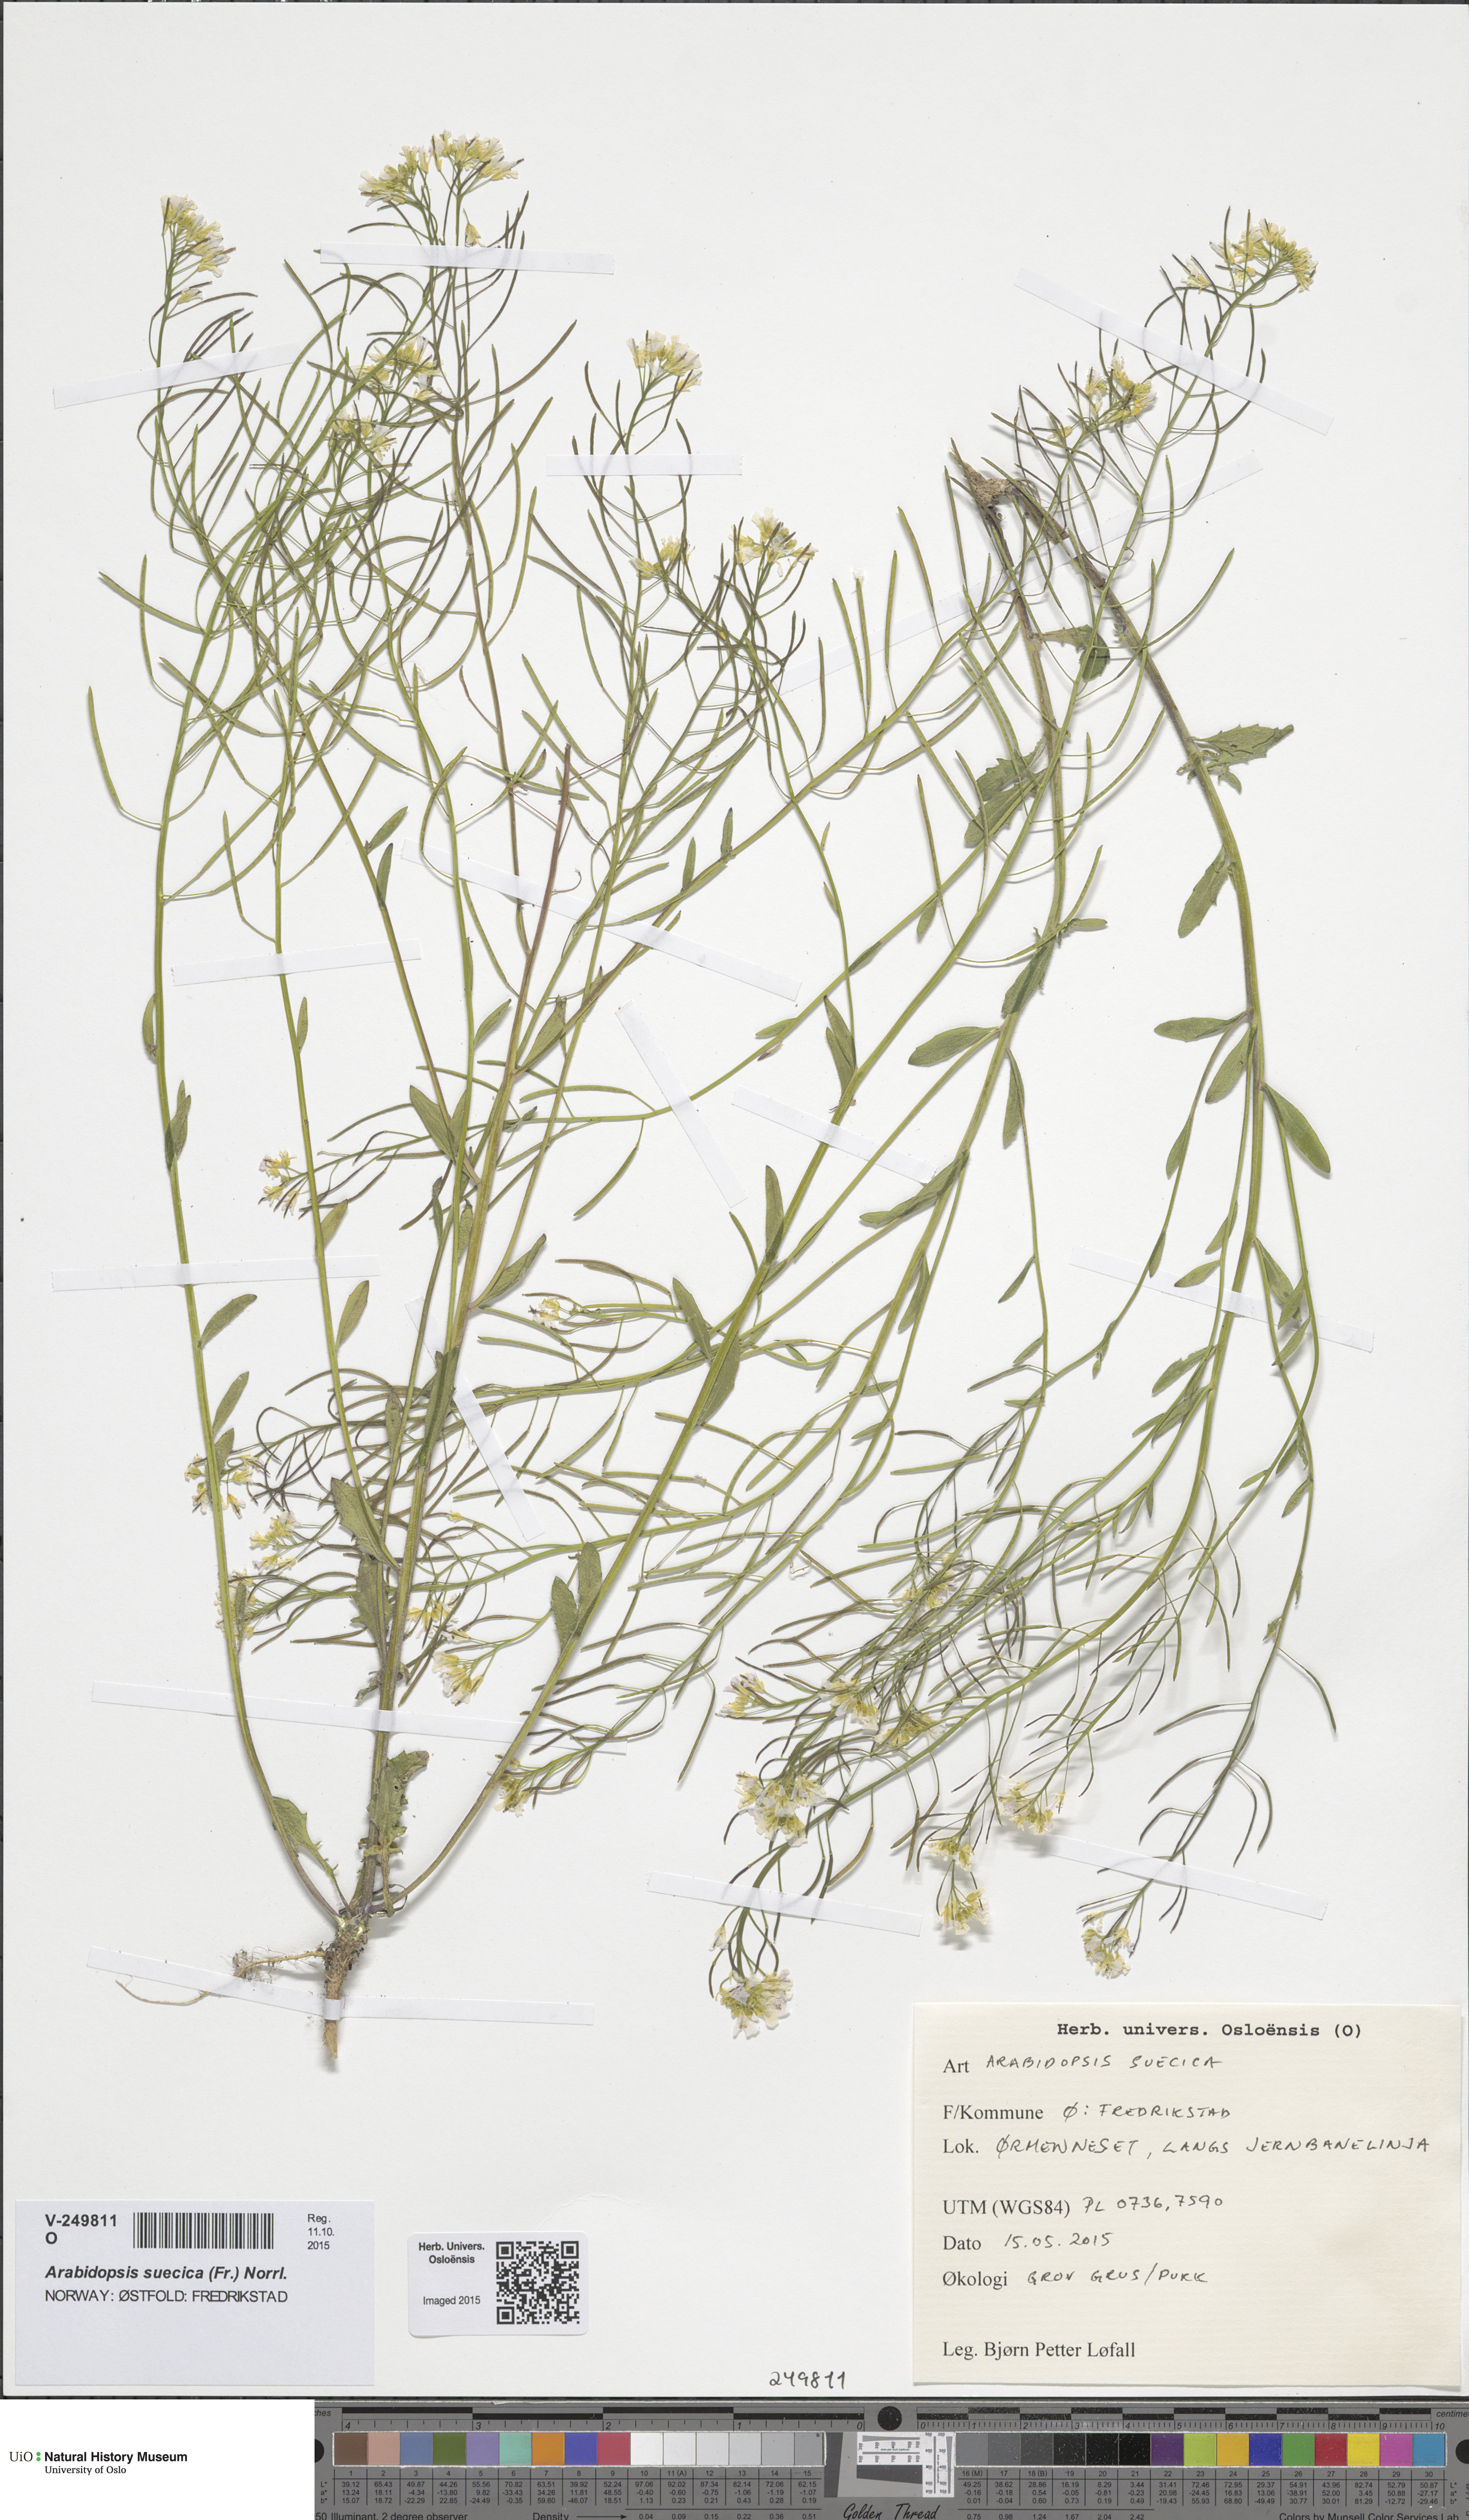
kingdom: Plantae
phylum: Tracheophyta
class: Magnoliopsida
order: Brassicales
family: Brassicaceae
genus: Arabidopsis
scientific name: Arabidopsis suecica
